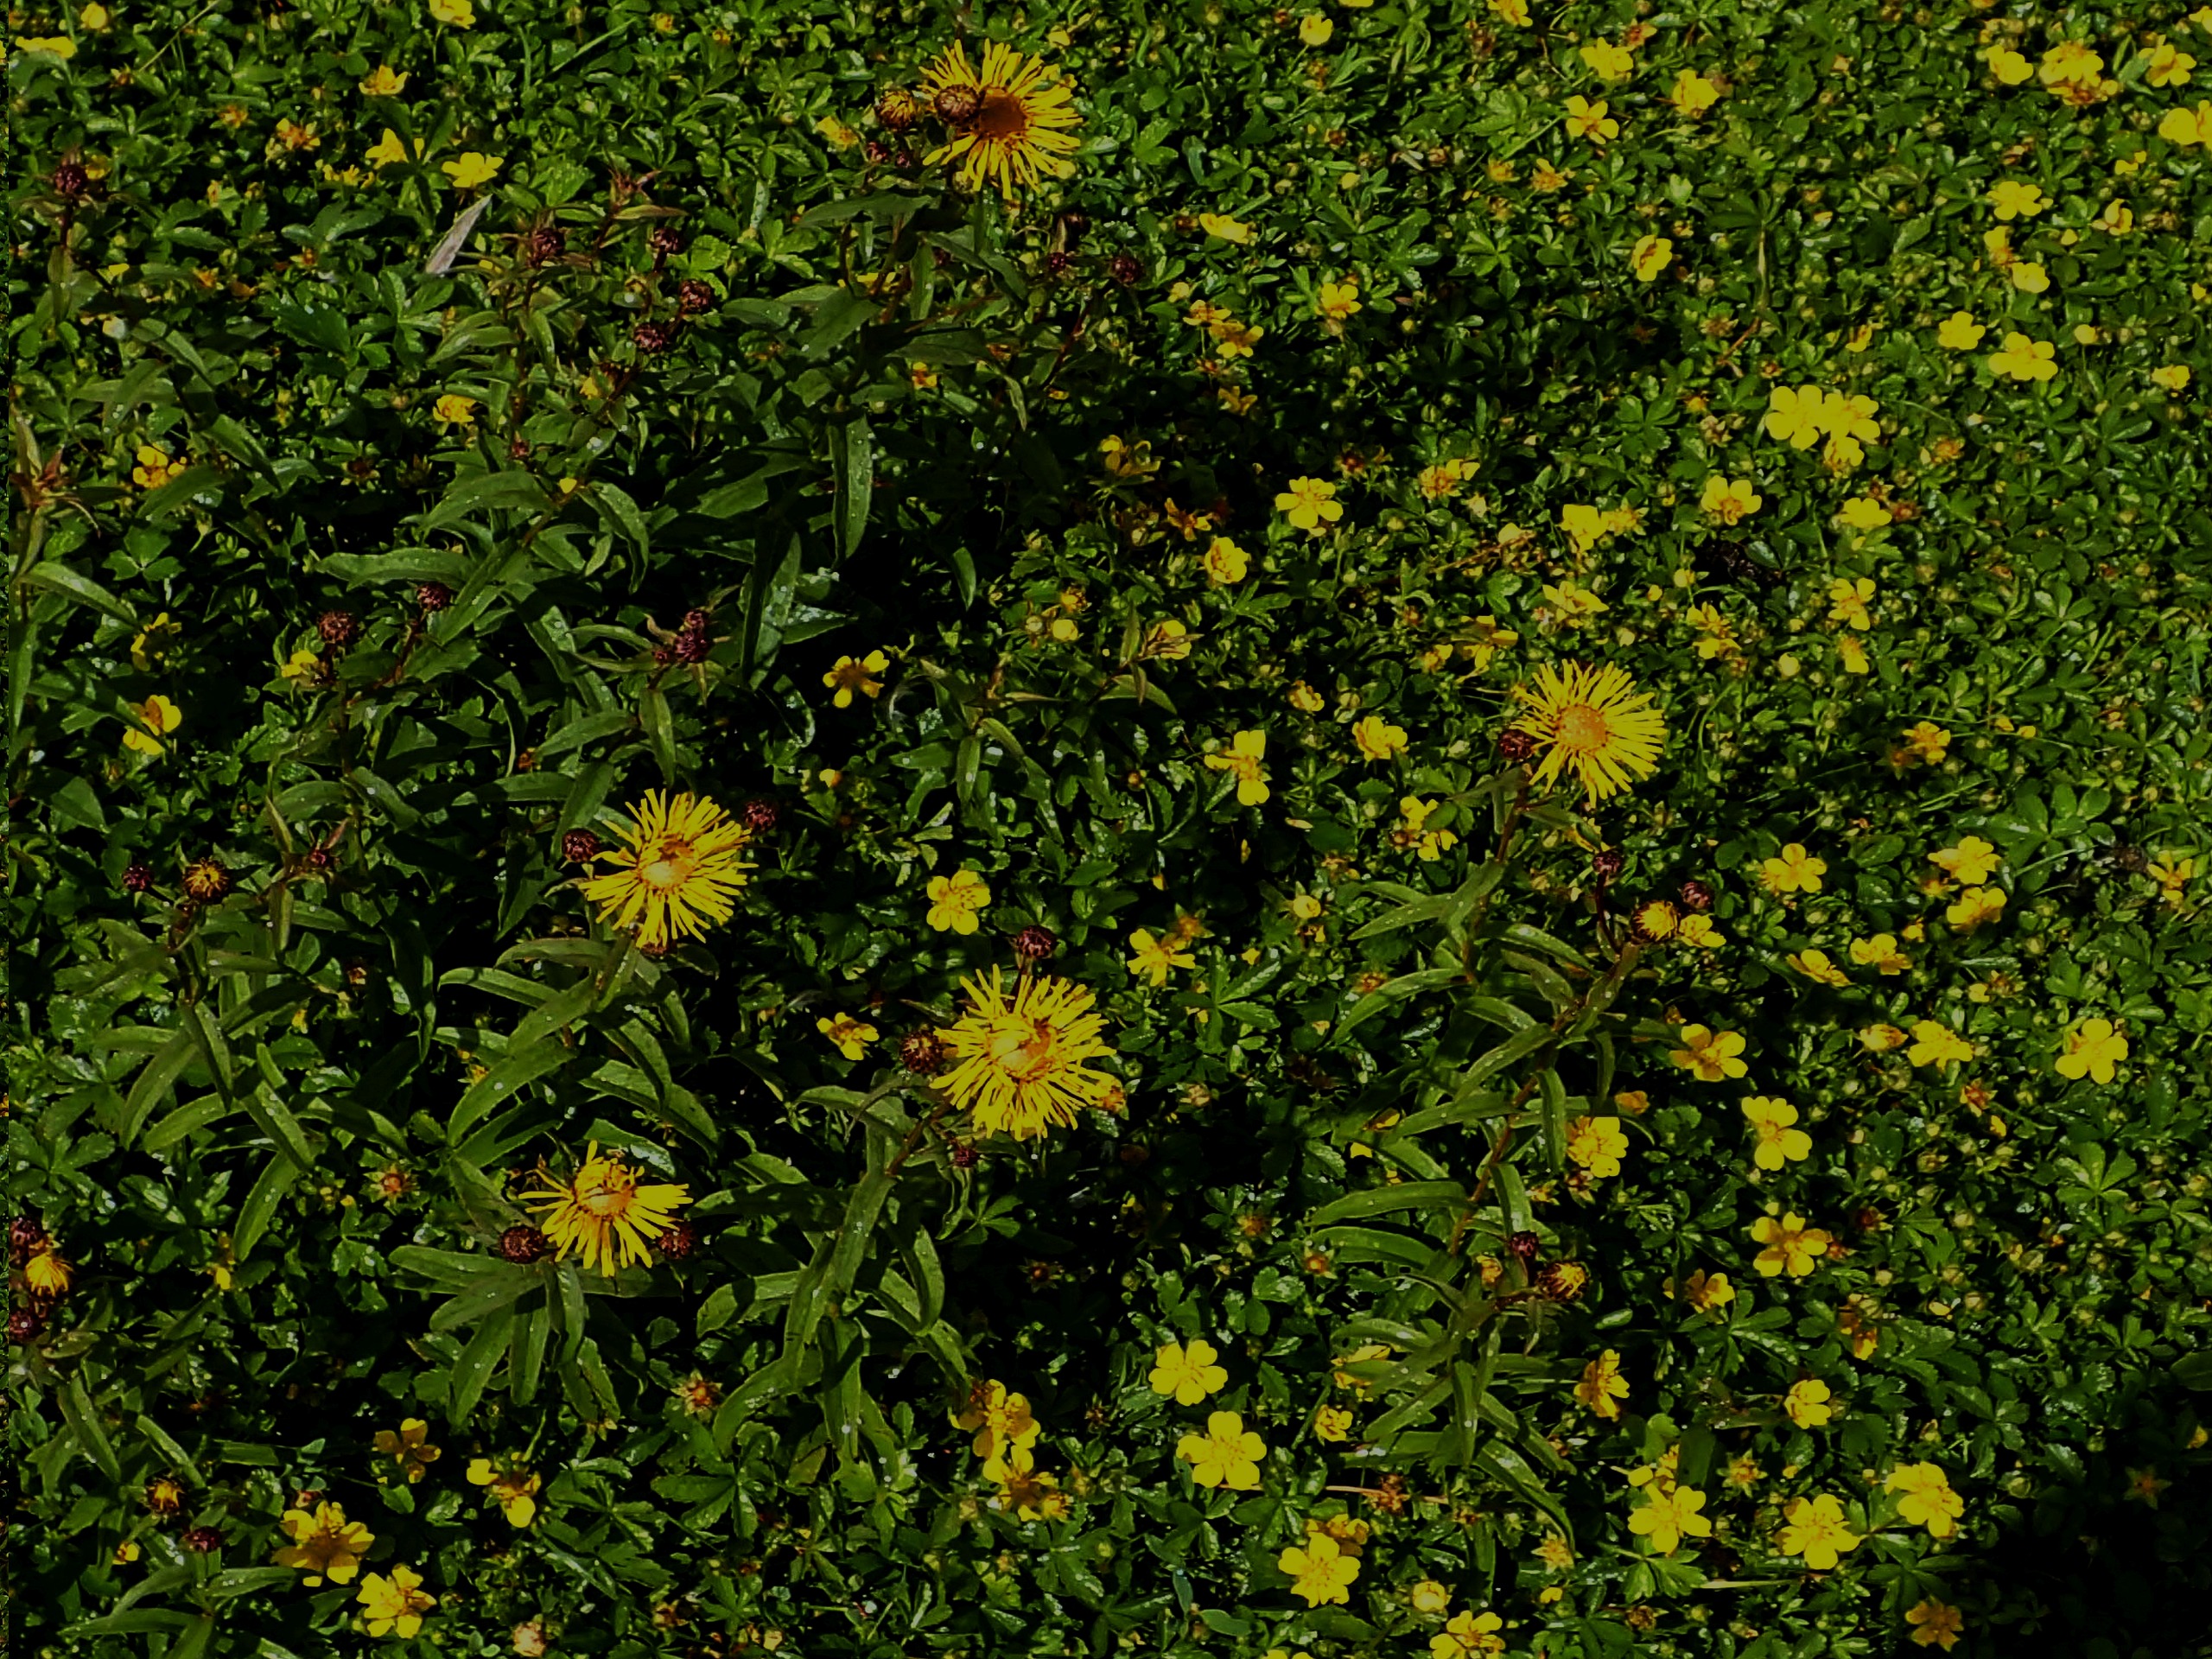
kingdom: Plantae
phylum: Tracheophyta
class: Magnoliopsida
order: Asterales
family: Asteraceae
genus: Pentanema
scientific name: Pentanema salicinum
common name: Pile-alant
